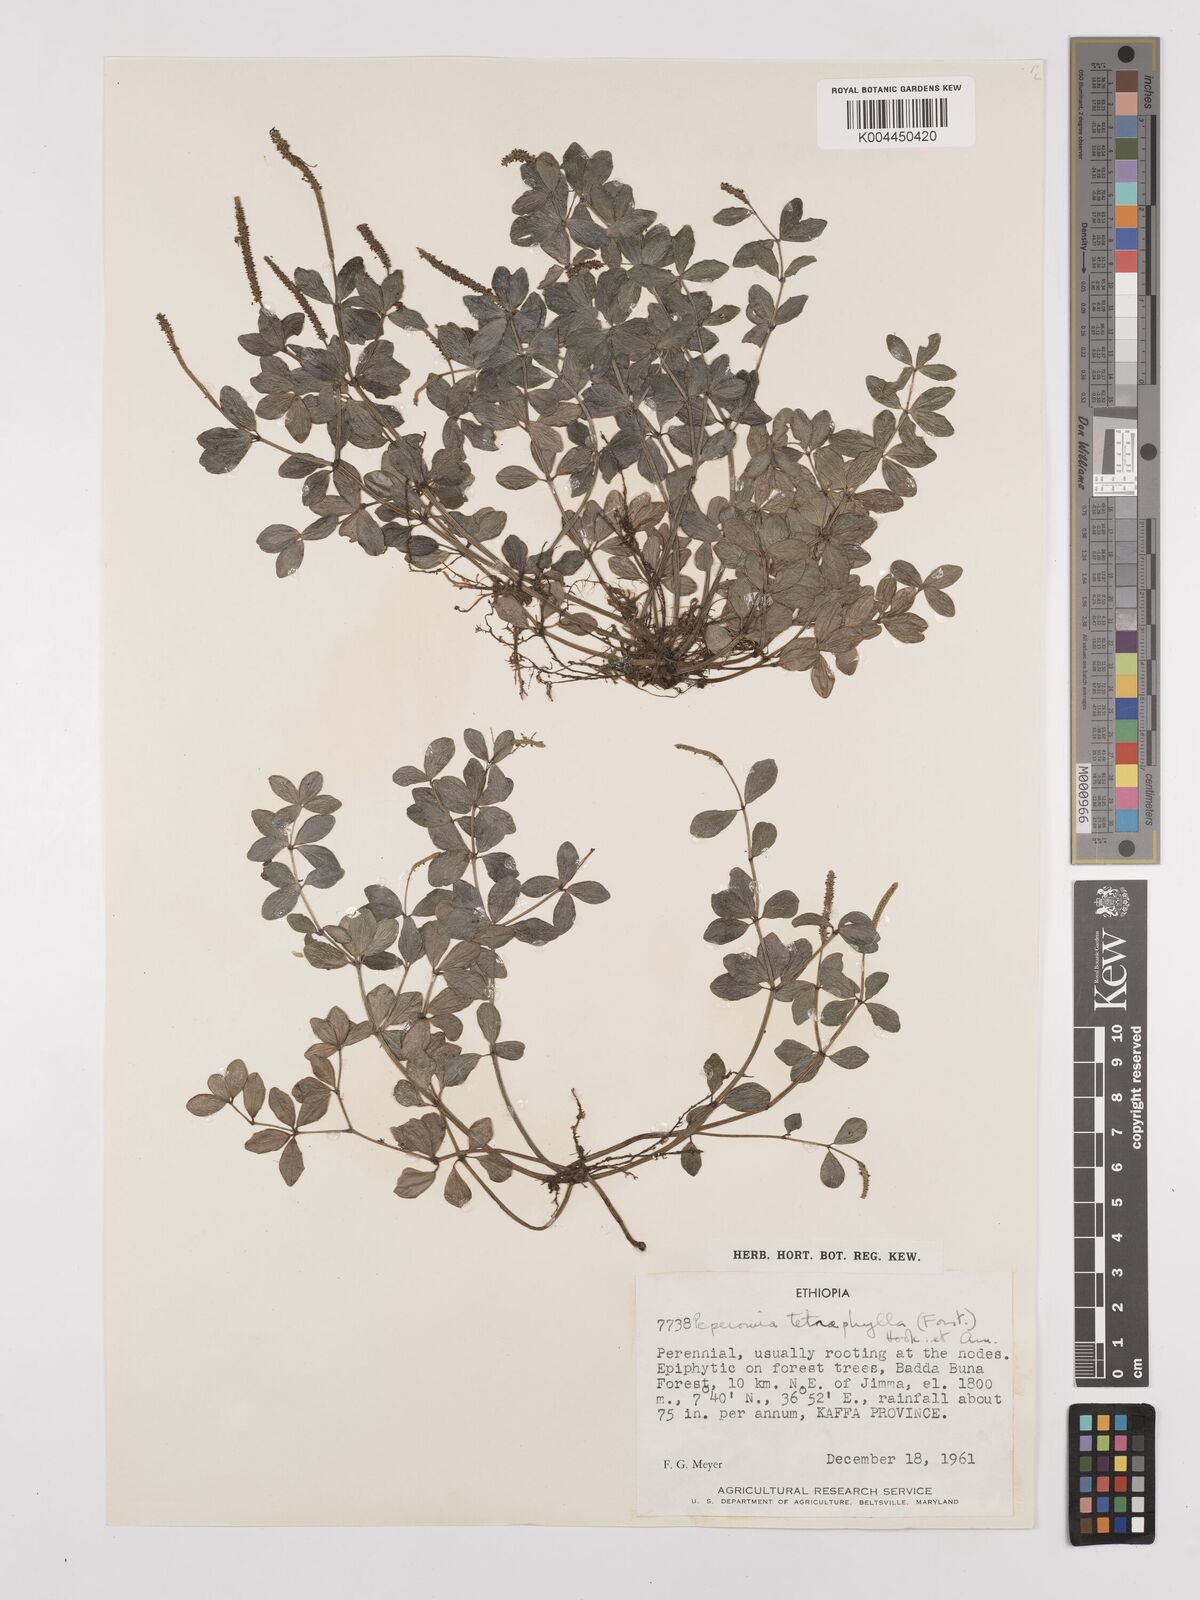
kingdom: Plantae
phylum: Tracheophyta
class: Magnoliopsida
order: Piperales
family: Piperaceae
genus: Peperomia
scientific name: Peperomia tetraphylla
